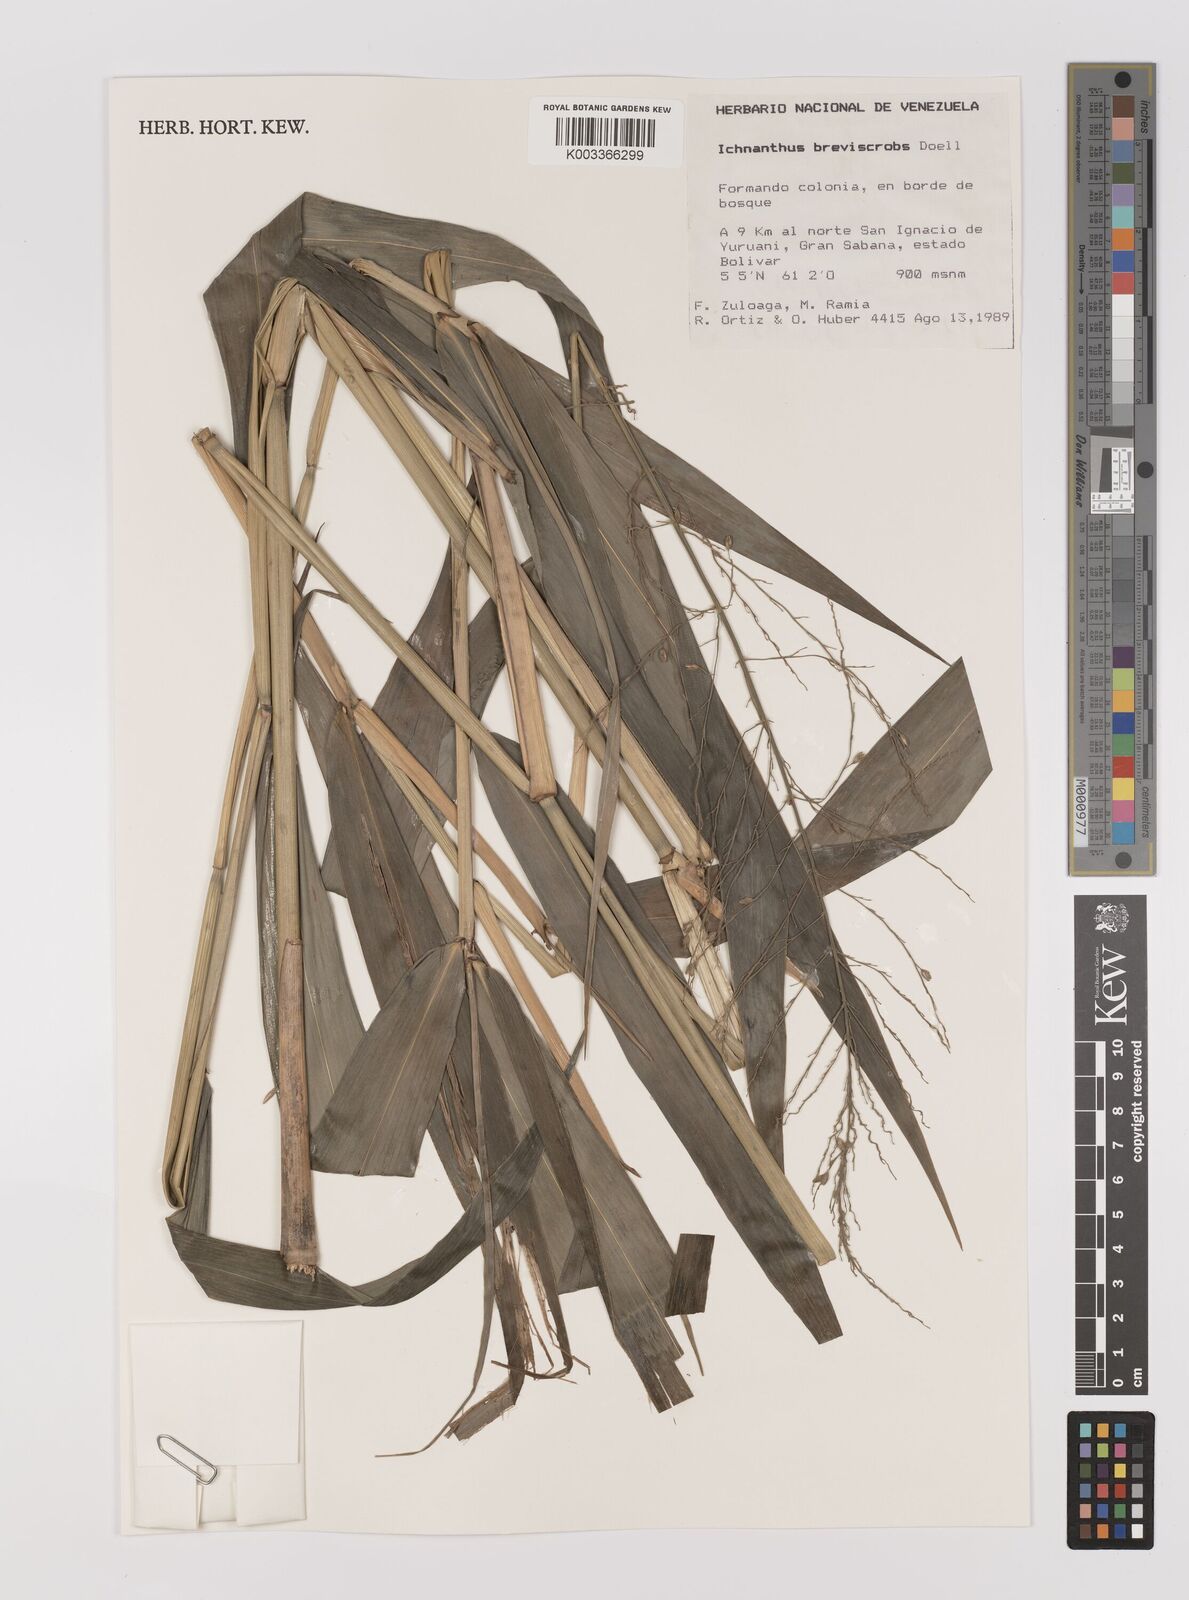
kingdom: Plantae
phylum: Tracheophyta
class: Liliopsida
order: Poales
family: Poaceae
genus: Ichnanthus
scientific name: Ichnanthus breviscrobs
